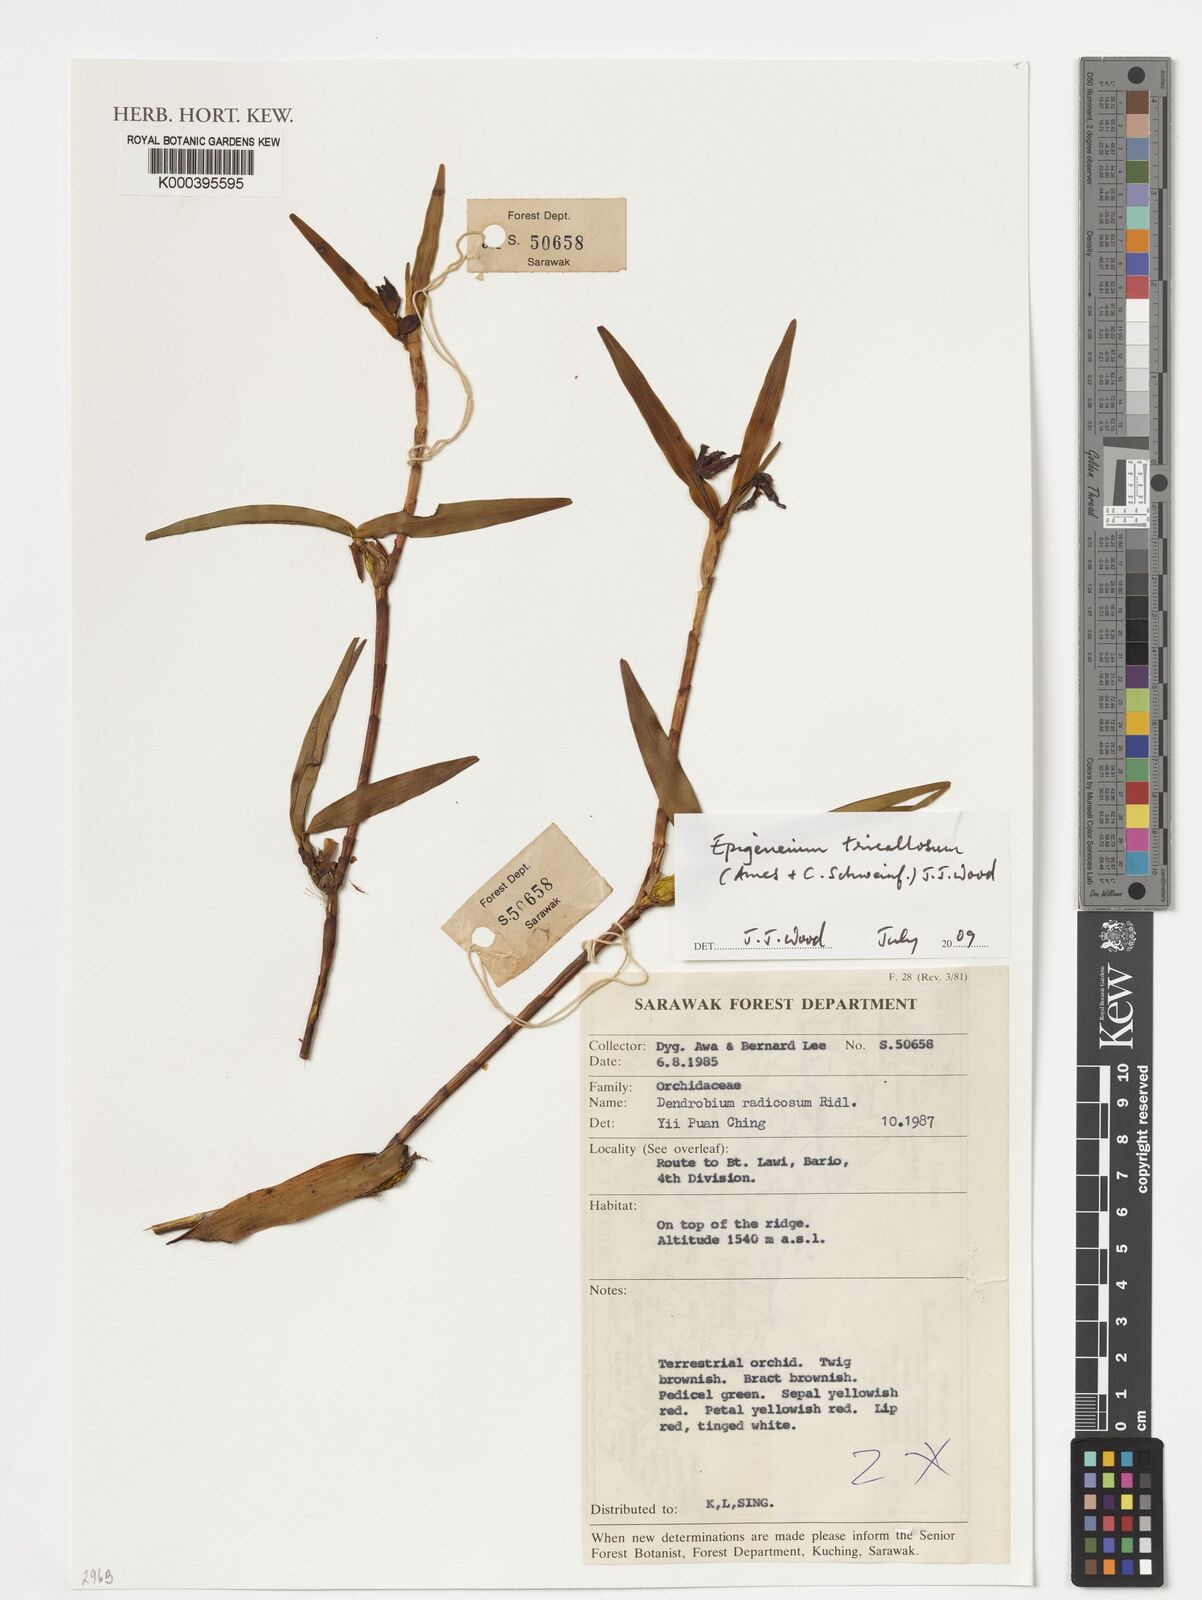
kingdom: Plantae
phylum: Tracheophyta
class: Liliopsida
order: Asparagales
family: Orchidaceae
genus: Dendrobium
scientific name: Dendrobium tricallosum
